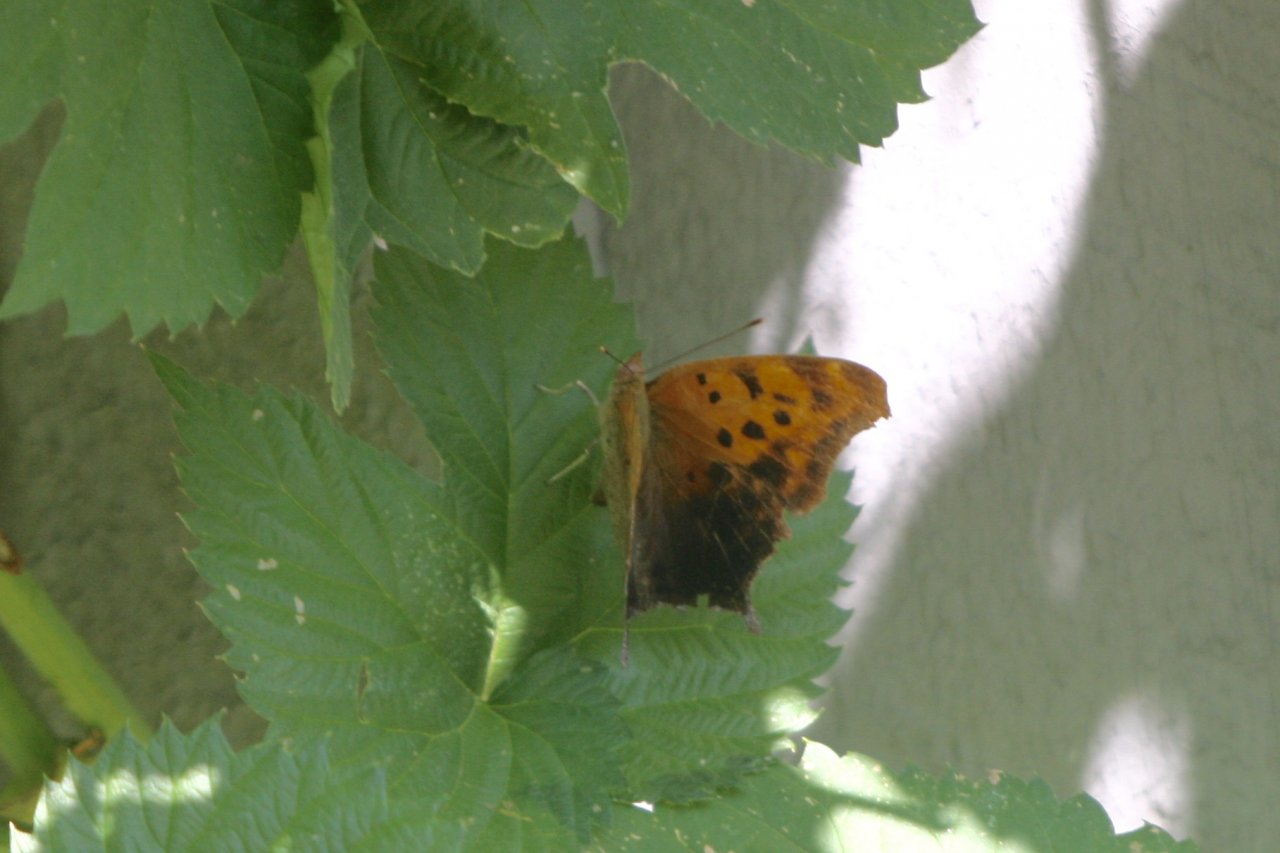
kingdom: Animalia
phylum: Arthropoda
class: Insecta
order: Lepidoptera
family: Nymphalidae
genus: Polygonia
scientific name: Polygonia interrogationis
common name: Question Mark
